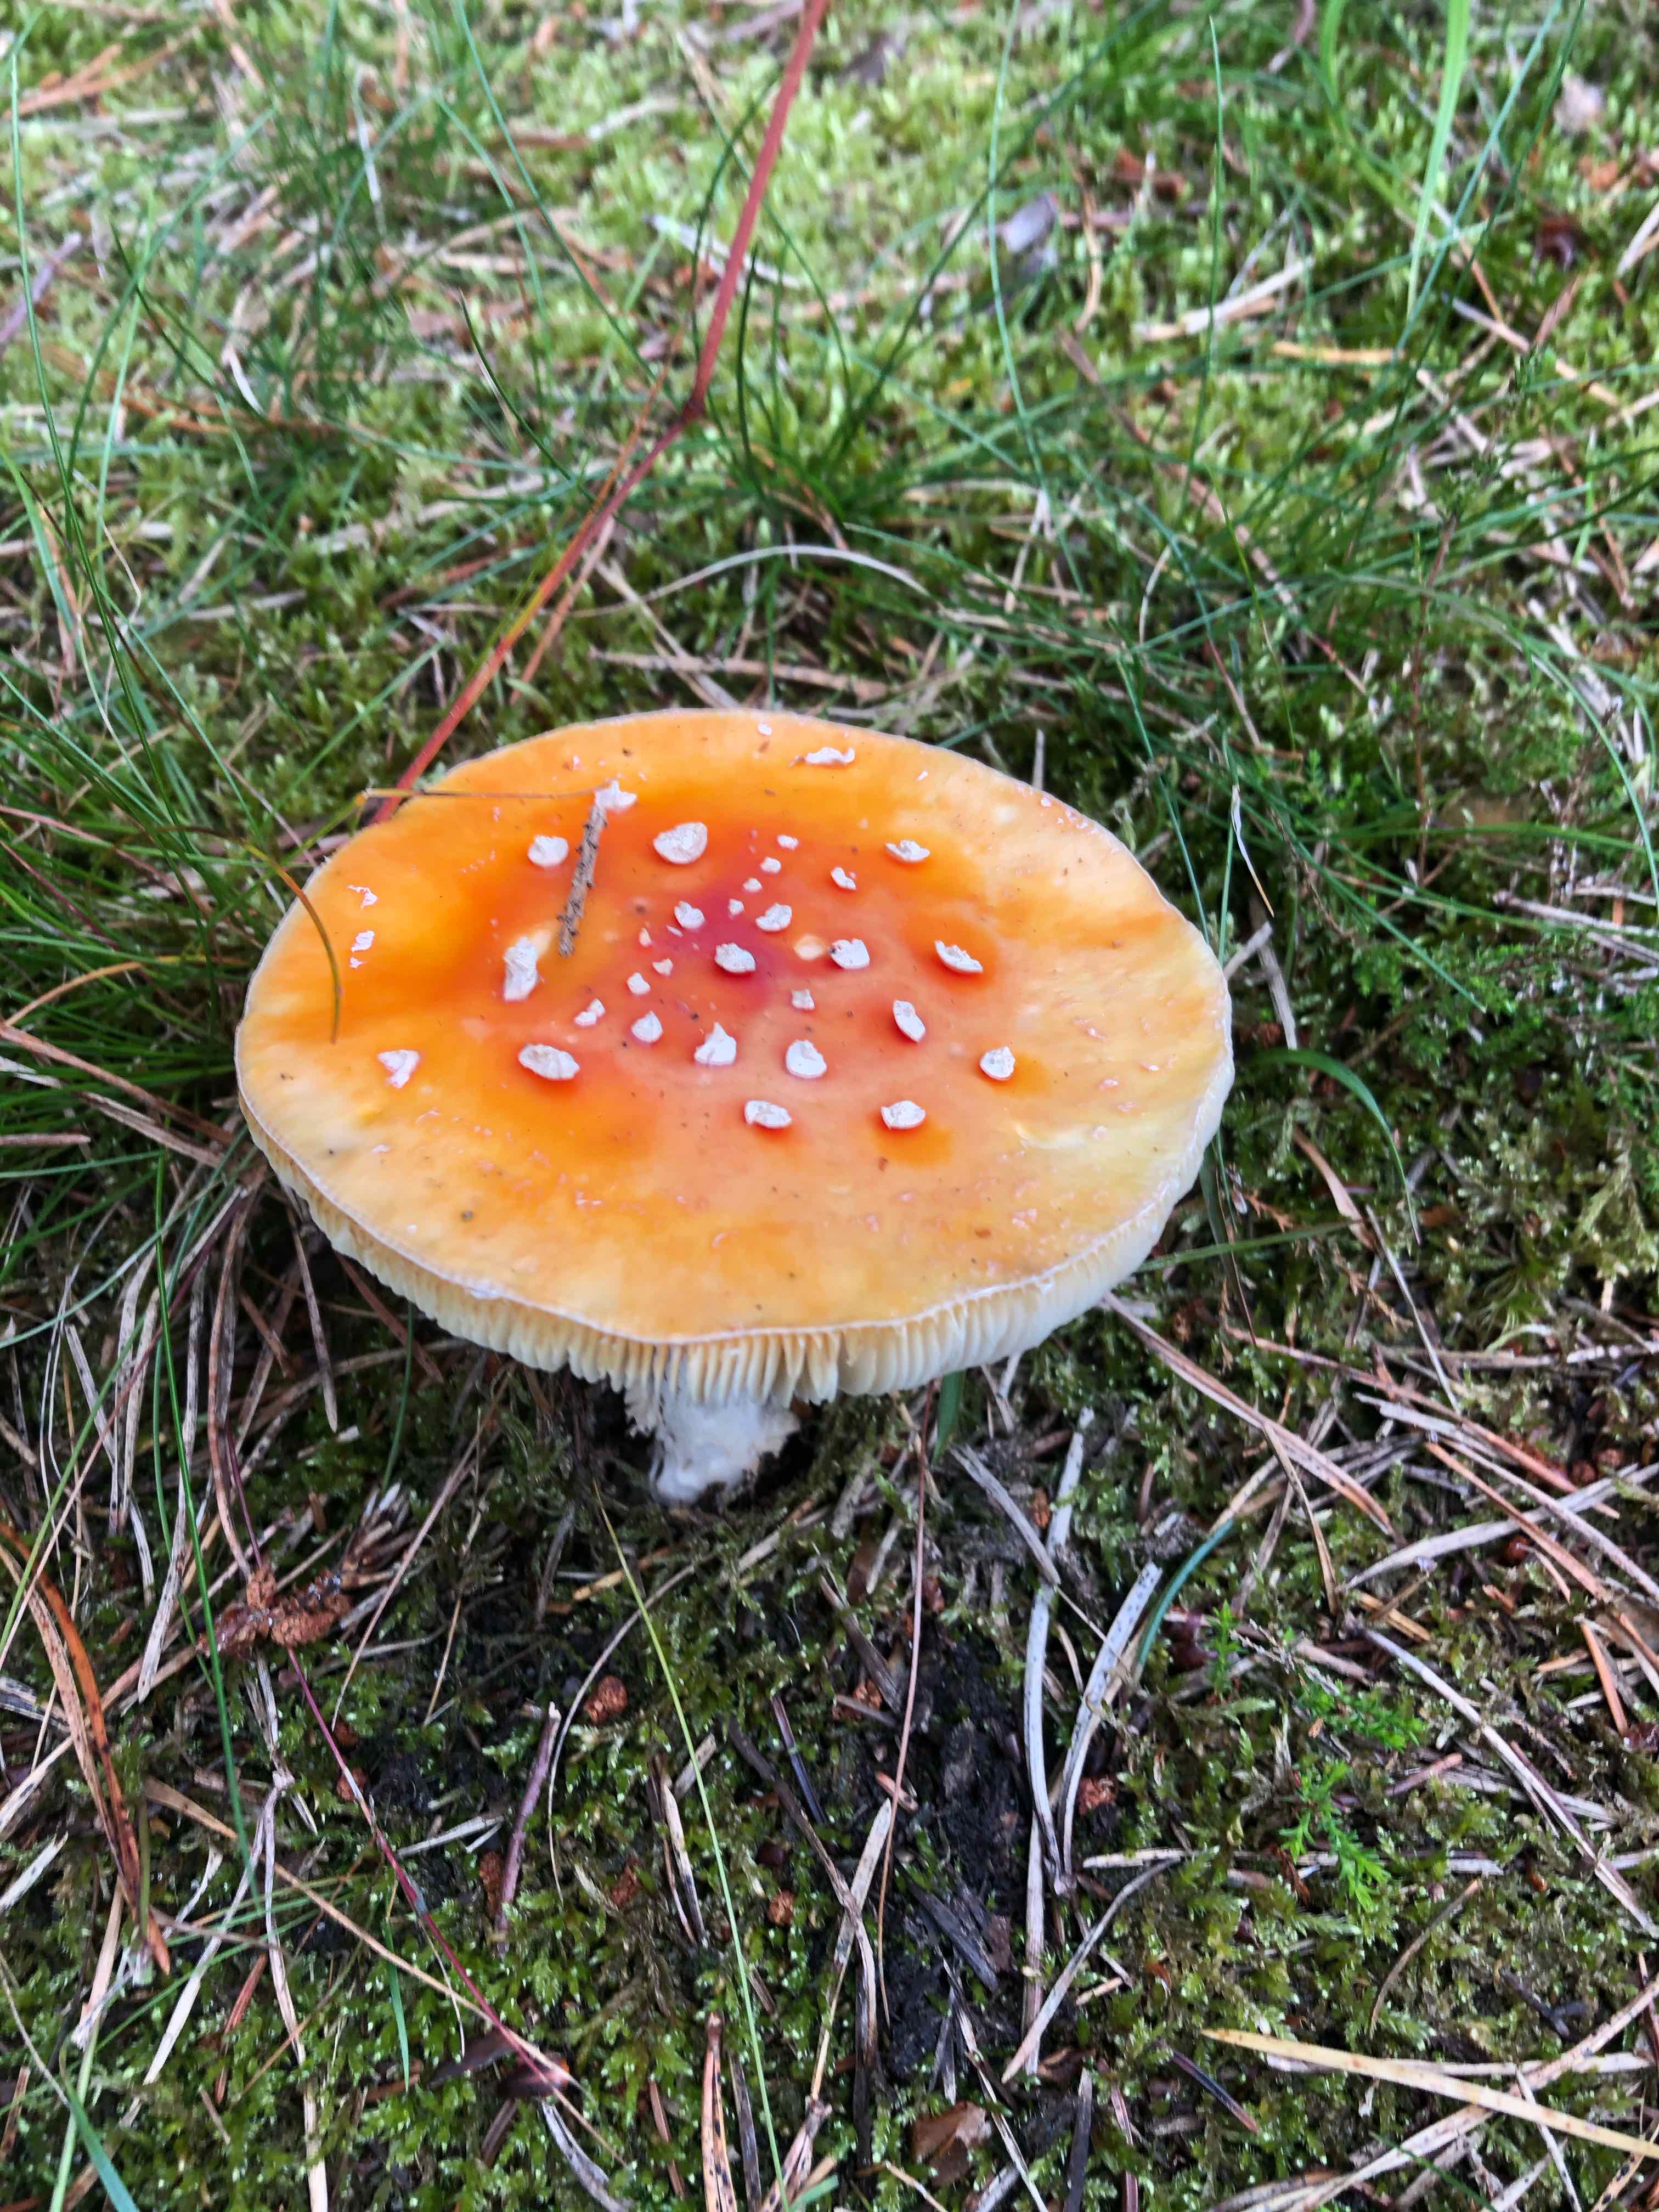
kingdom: Fungi
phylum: Basidiomycota
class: Agaricomycetes
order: Agaricales
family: Amanitaceae
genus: Amanita
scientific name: Amanita muscaria
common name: rød fluesvamp
